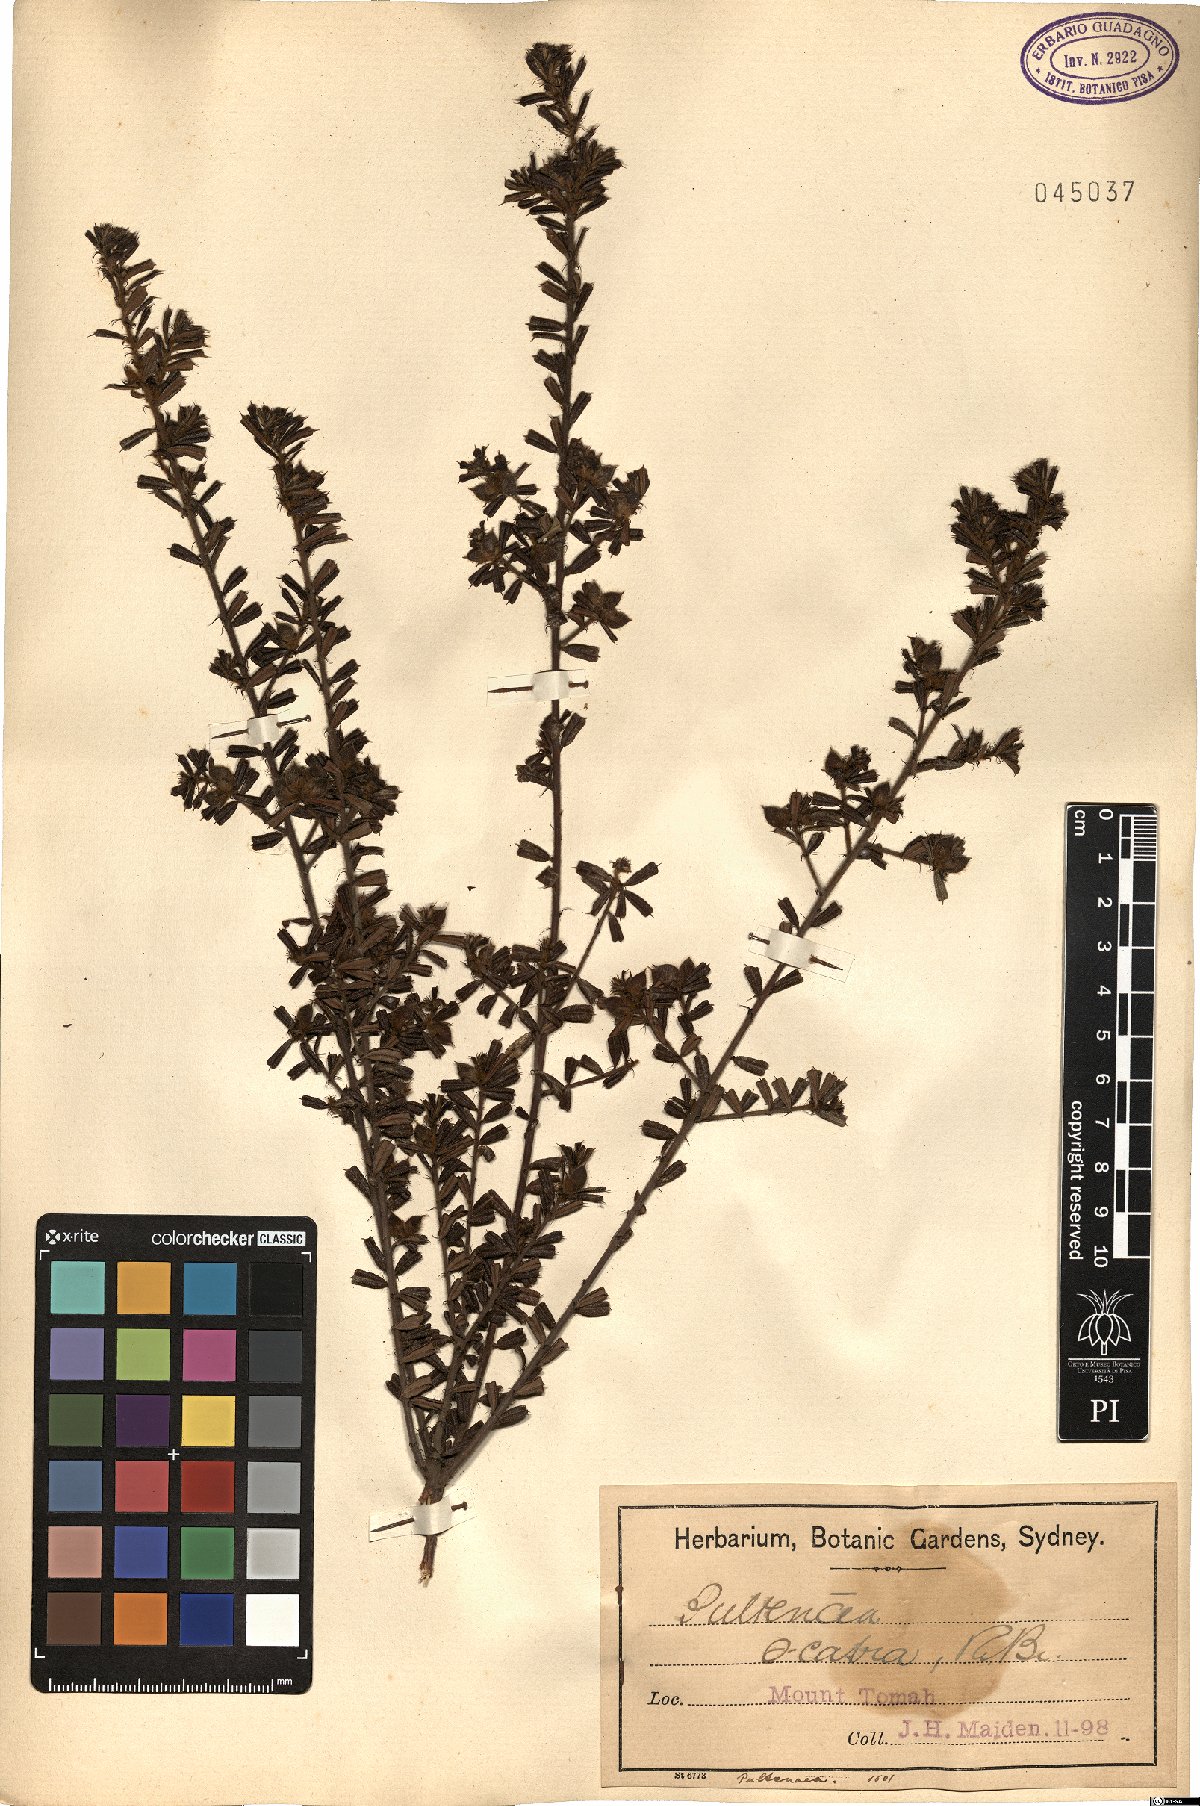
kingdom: Plantae
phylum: Tracheophyta
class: Magnoliopsida
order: Fabales
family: Fabaceae
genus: Pultenaea
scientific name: Pultenaea scabra
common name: Rough bush-pea
